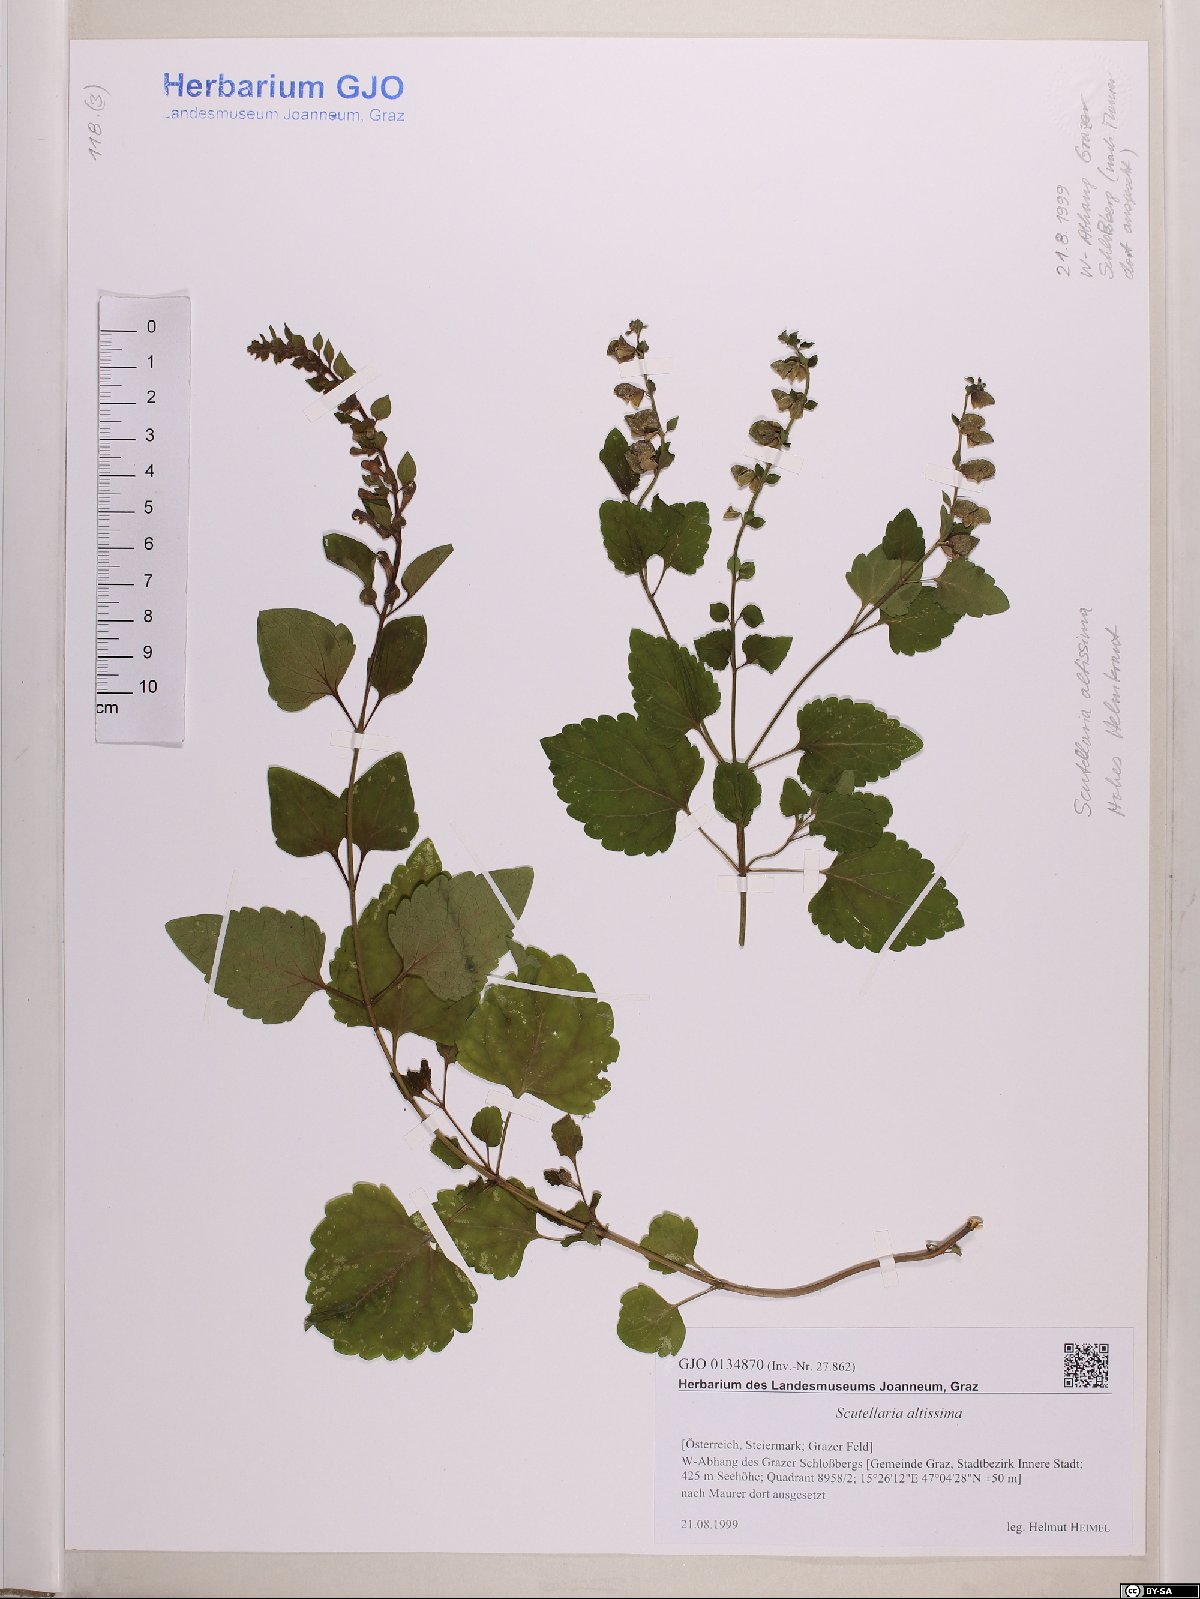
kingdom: Plantae
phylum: Tracheophyta
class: Magnoliopsida
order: Lamiales
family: Lamiaceae
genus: Scutellaria
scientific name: Scutellaria altissima
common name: Somerset skullcap
